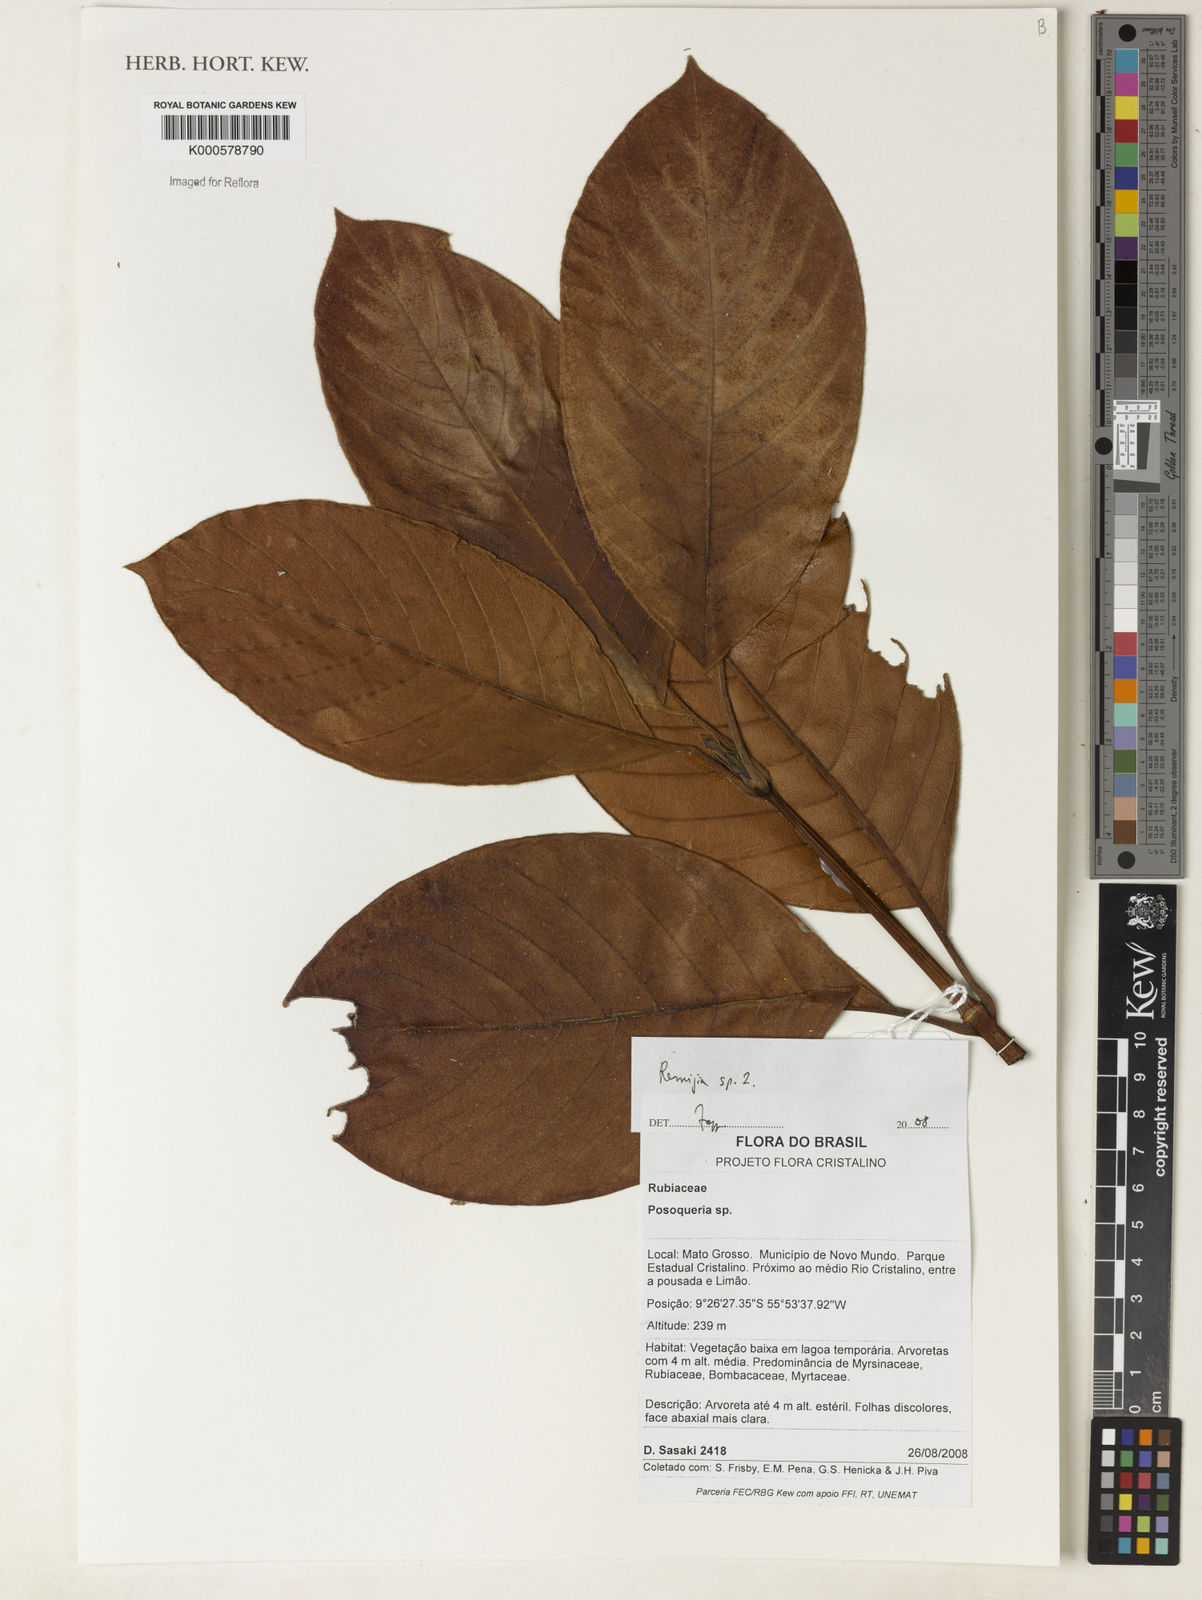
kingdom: Plantae
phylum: Tracheophyta
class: Magnoliopsida
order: Gentianales
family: Rubiaceae
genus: Remijia
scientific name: Remijia
